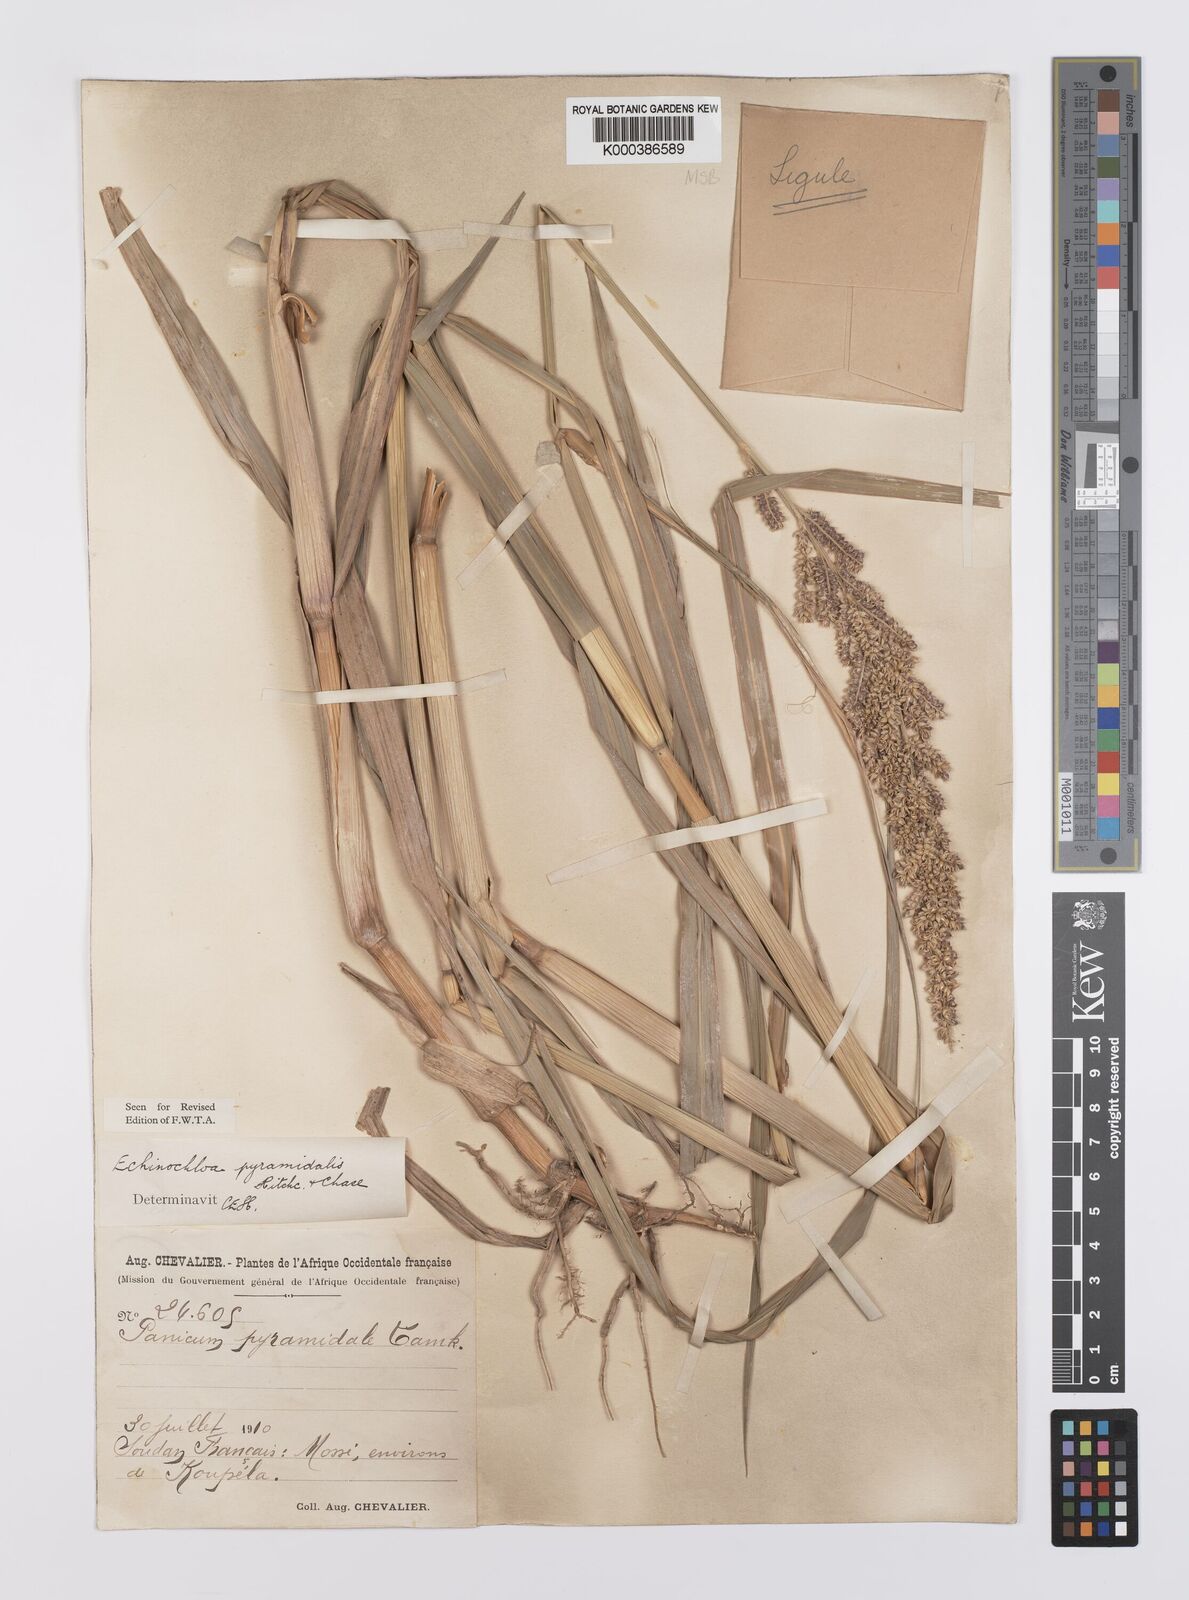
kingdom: Plantae
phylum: Tracheophyta
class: Liliopsida
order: Poales
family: Poaceae
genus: Echinochloa
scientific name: Echinochloa pyramidalis
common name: Antelope grass
